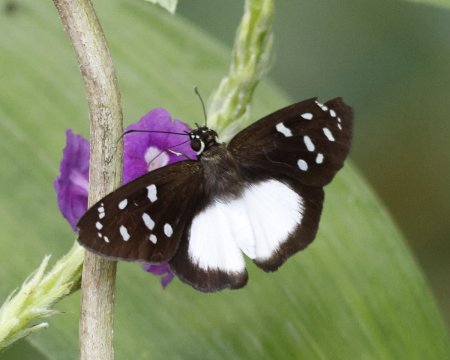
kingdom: Animalia
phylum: Arthropoda
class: Insecta
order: Lepidoptera
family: Hesperiidae
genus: Hyalothyrus
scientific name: Hyalothyrus neleus
